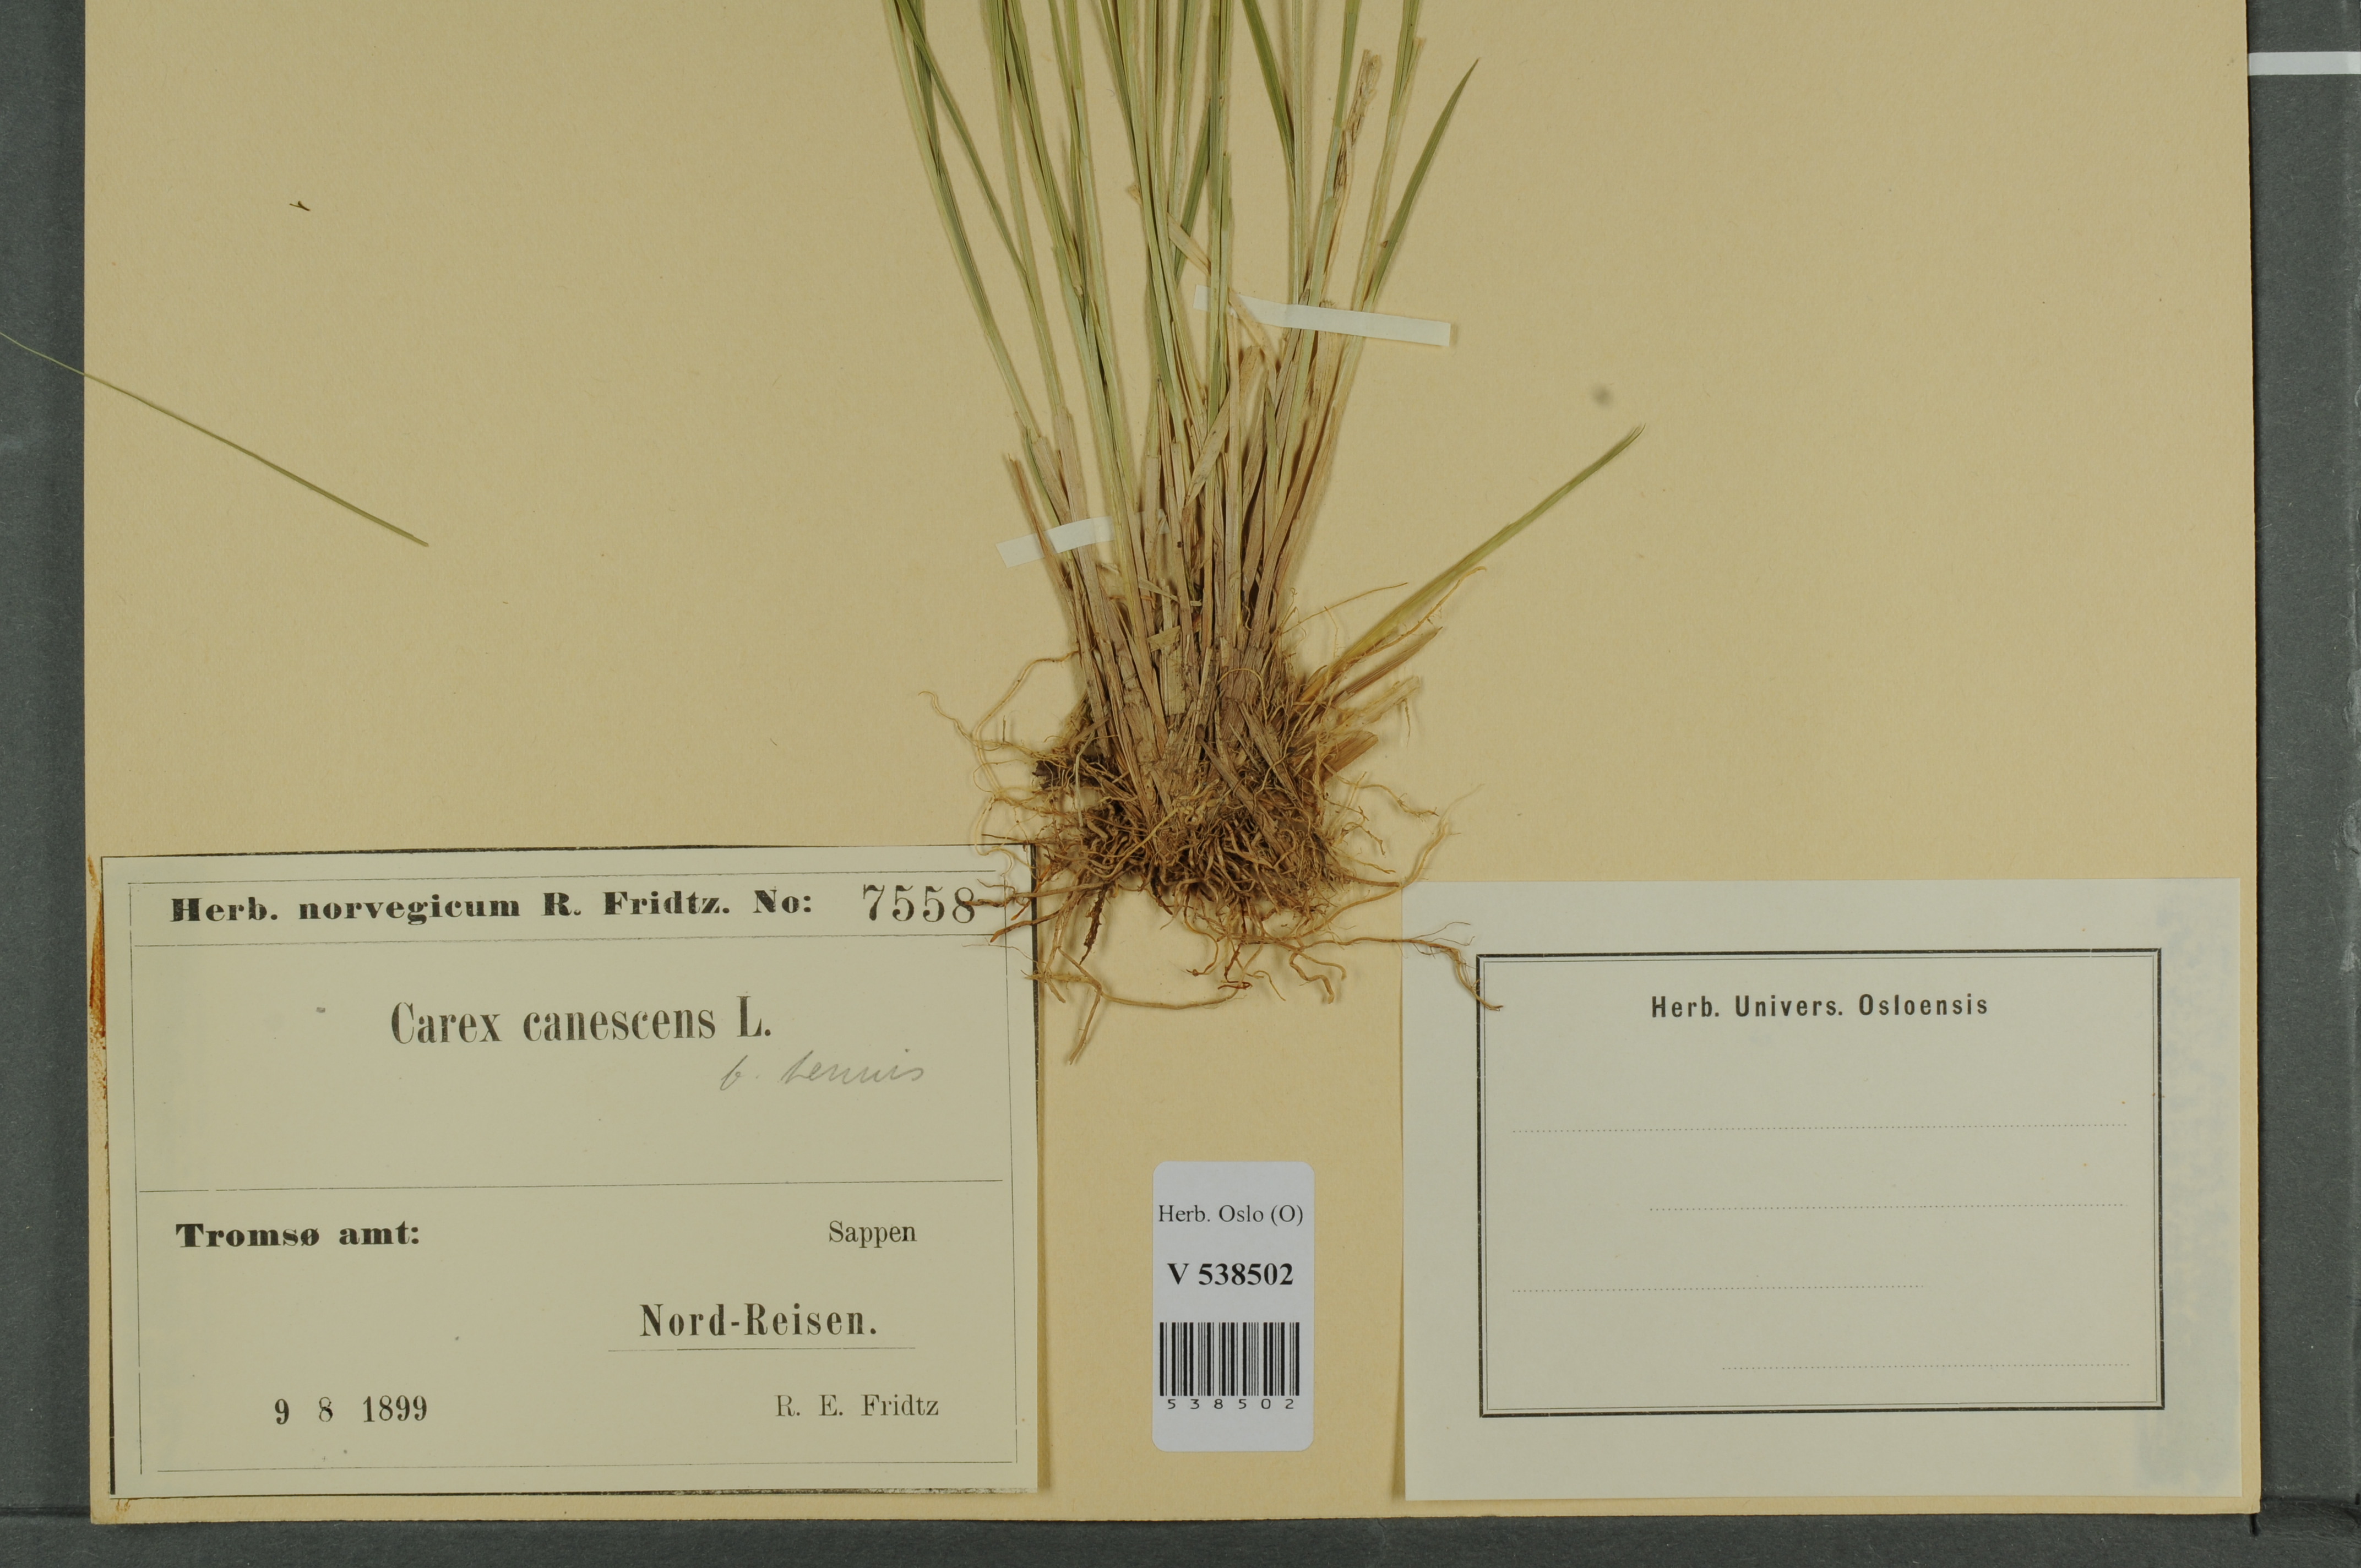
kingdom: Plantae
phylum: Tracheophyta
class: Liliopsida
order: Poales
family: Cyperaceae
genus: Carex
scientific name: Carex canescens
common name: White sedge
